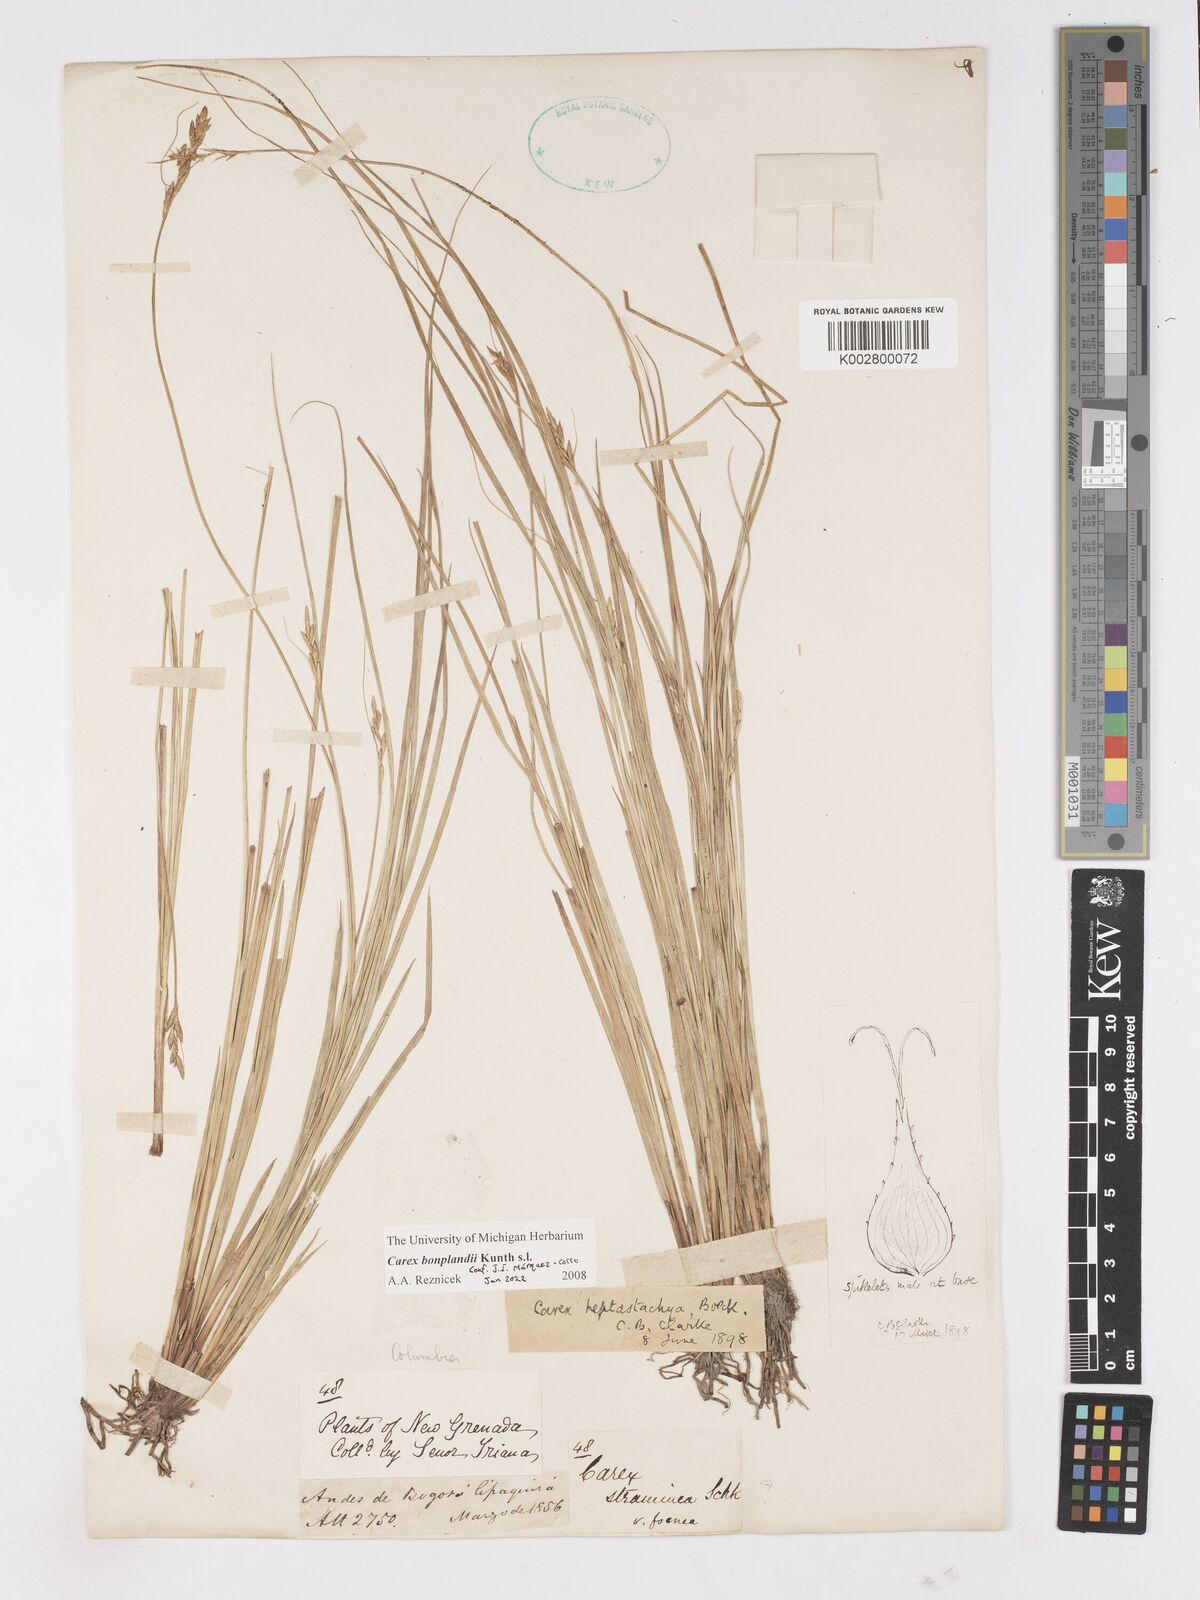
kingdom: Plantae
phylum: Tracheophyta
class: Liliopsida
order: Poales
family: Cyperaceae
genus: Carex
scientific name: Carex bonplandii
